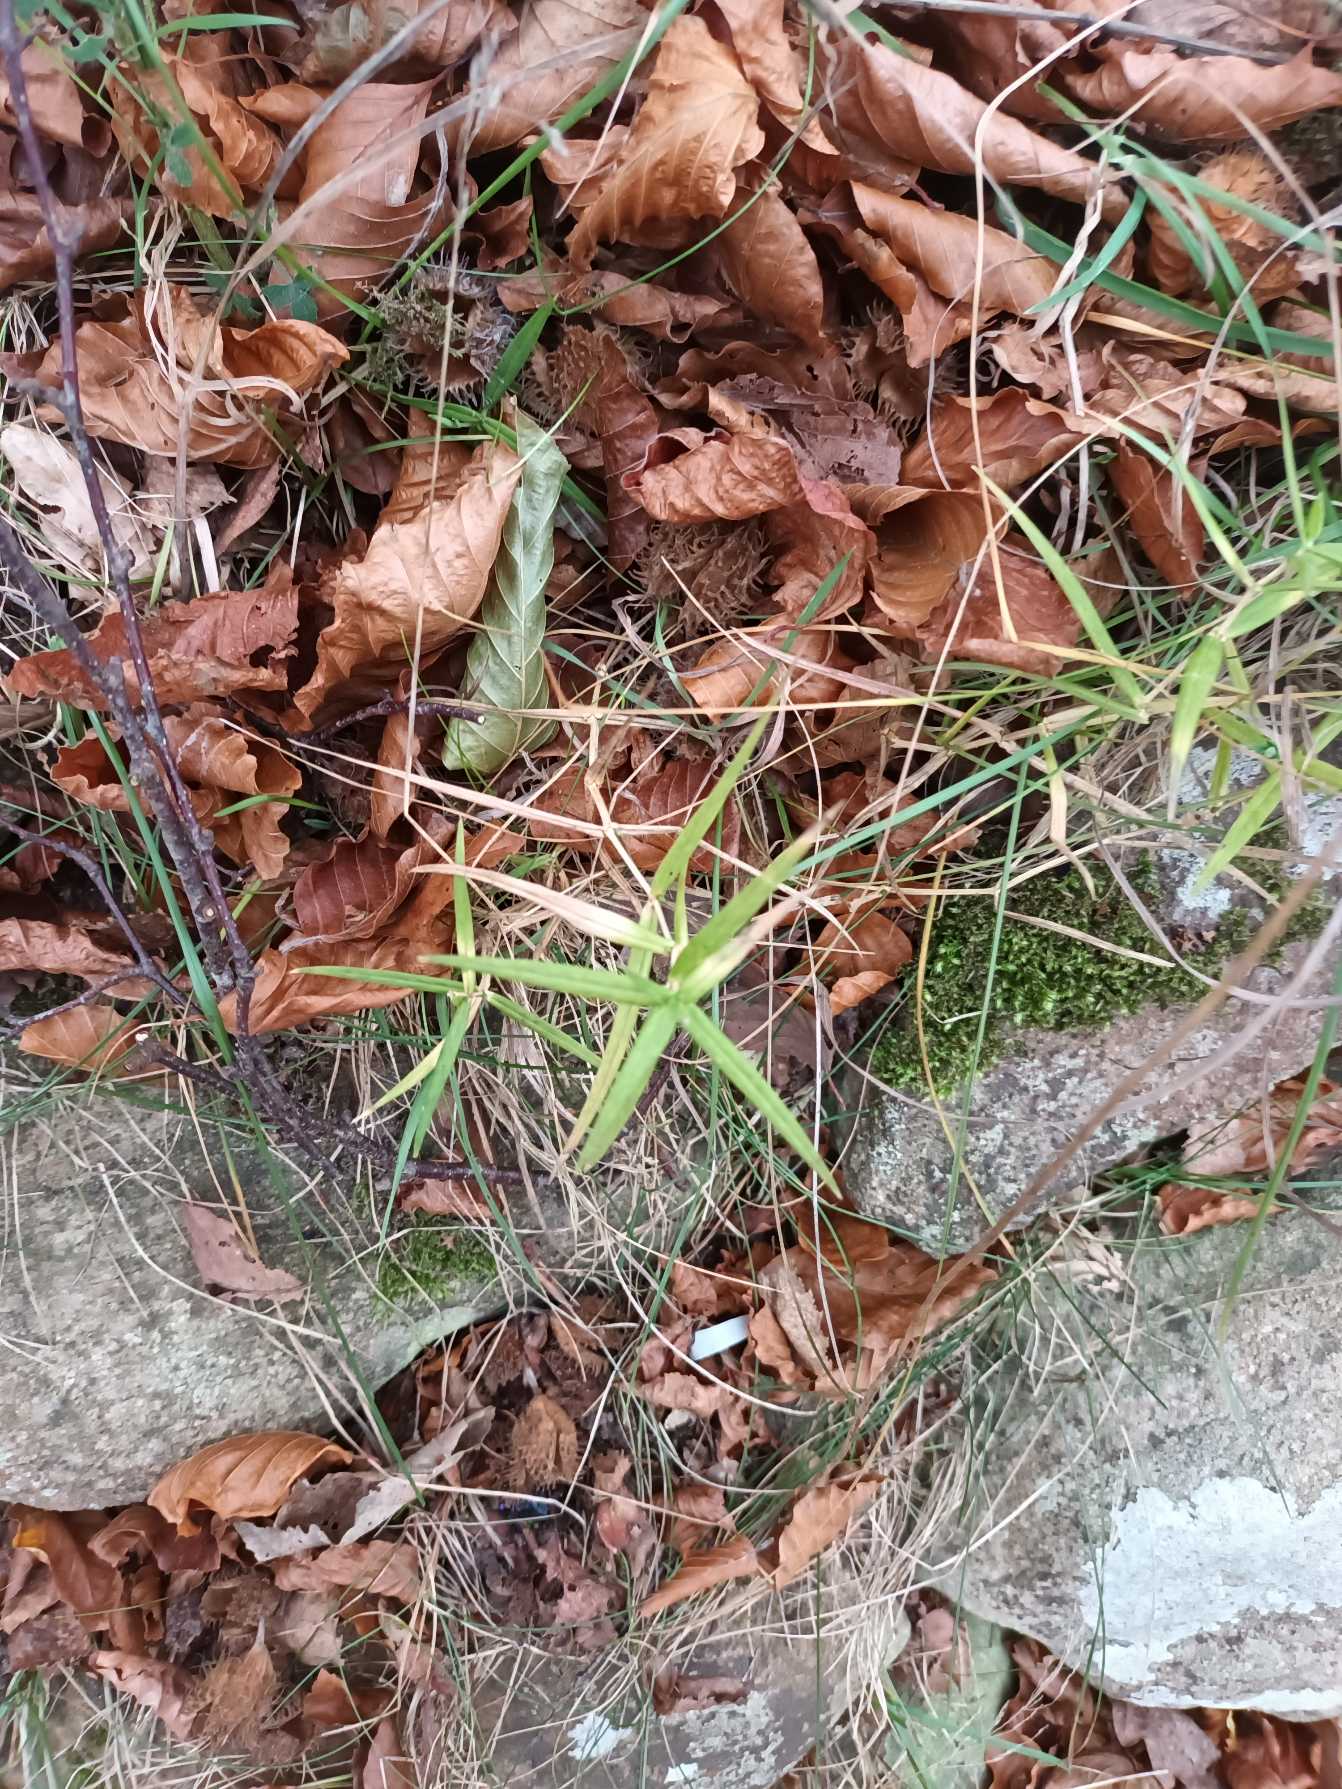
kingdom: Plantae
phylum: Tracheophyta
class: Magnoliopsida
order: Caryophyllales
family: Caryophyllaceae
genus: Rabelera
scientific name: Rabelera holostea
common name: Stor fladstjerne
